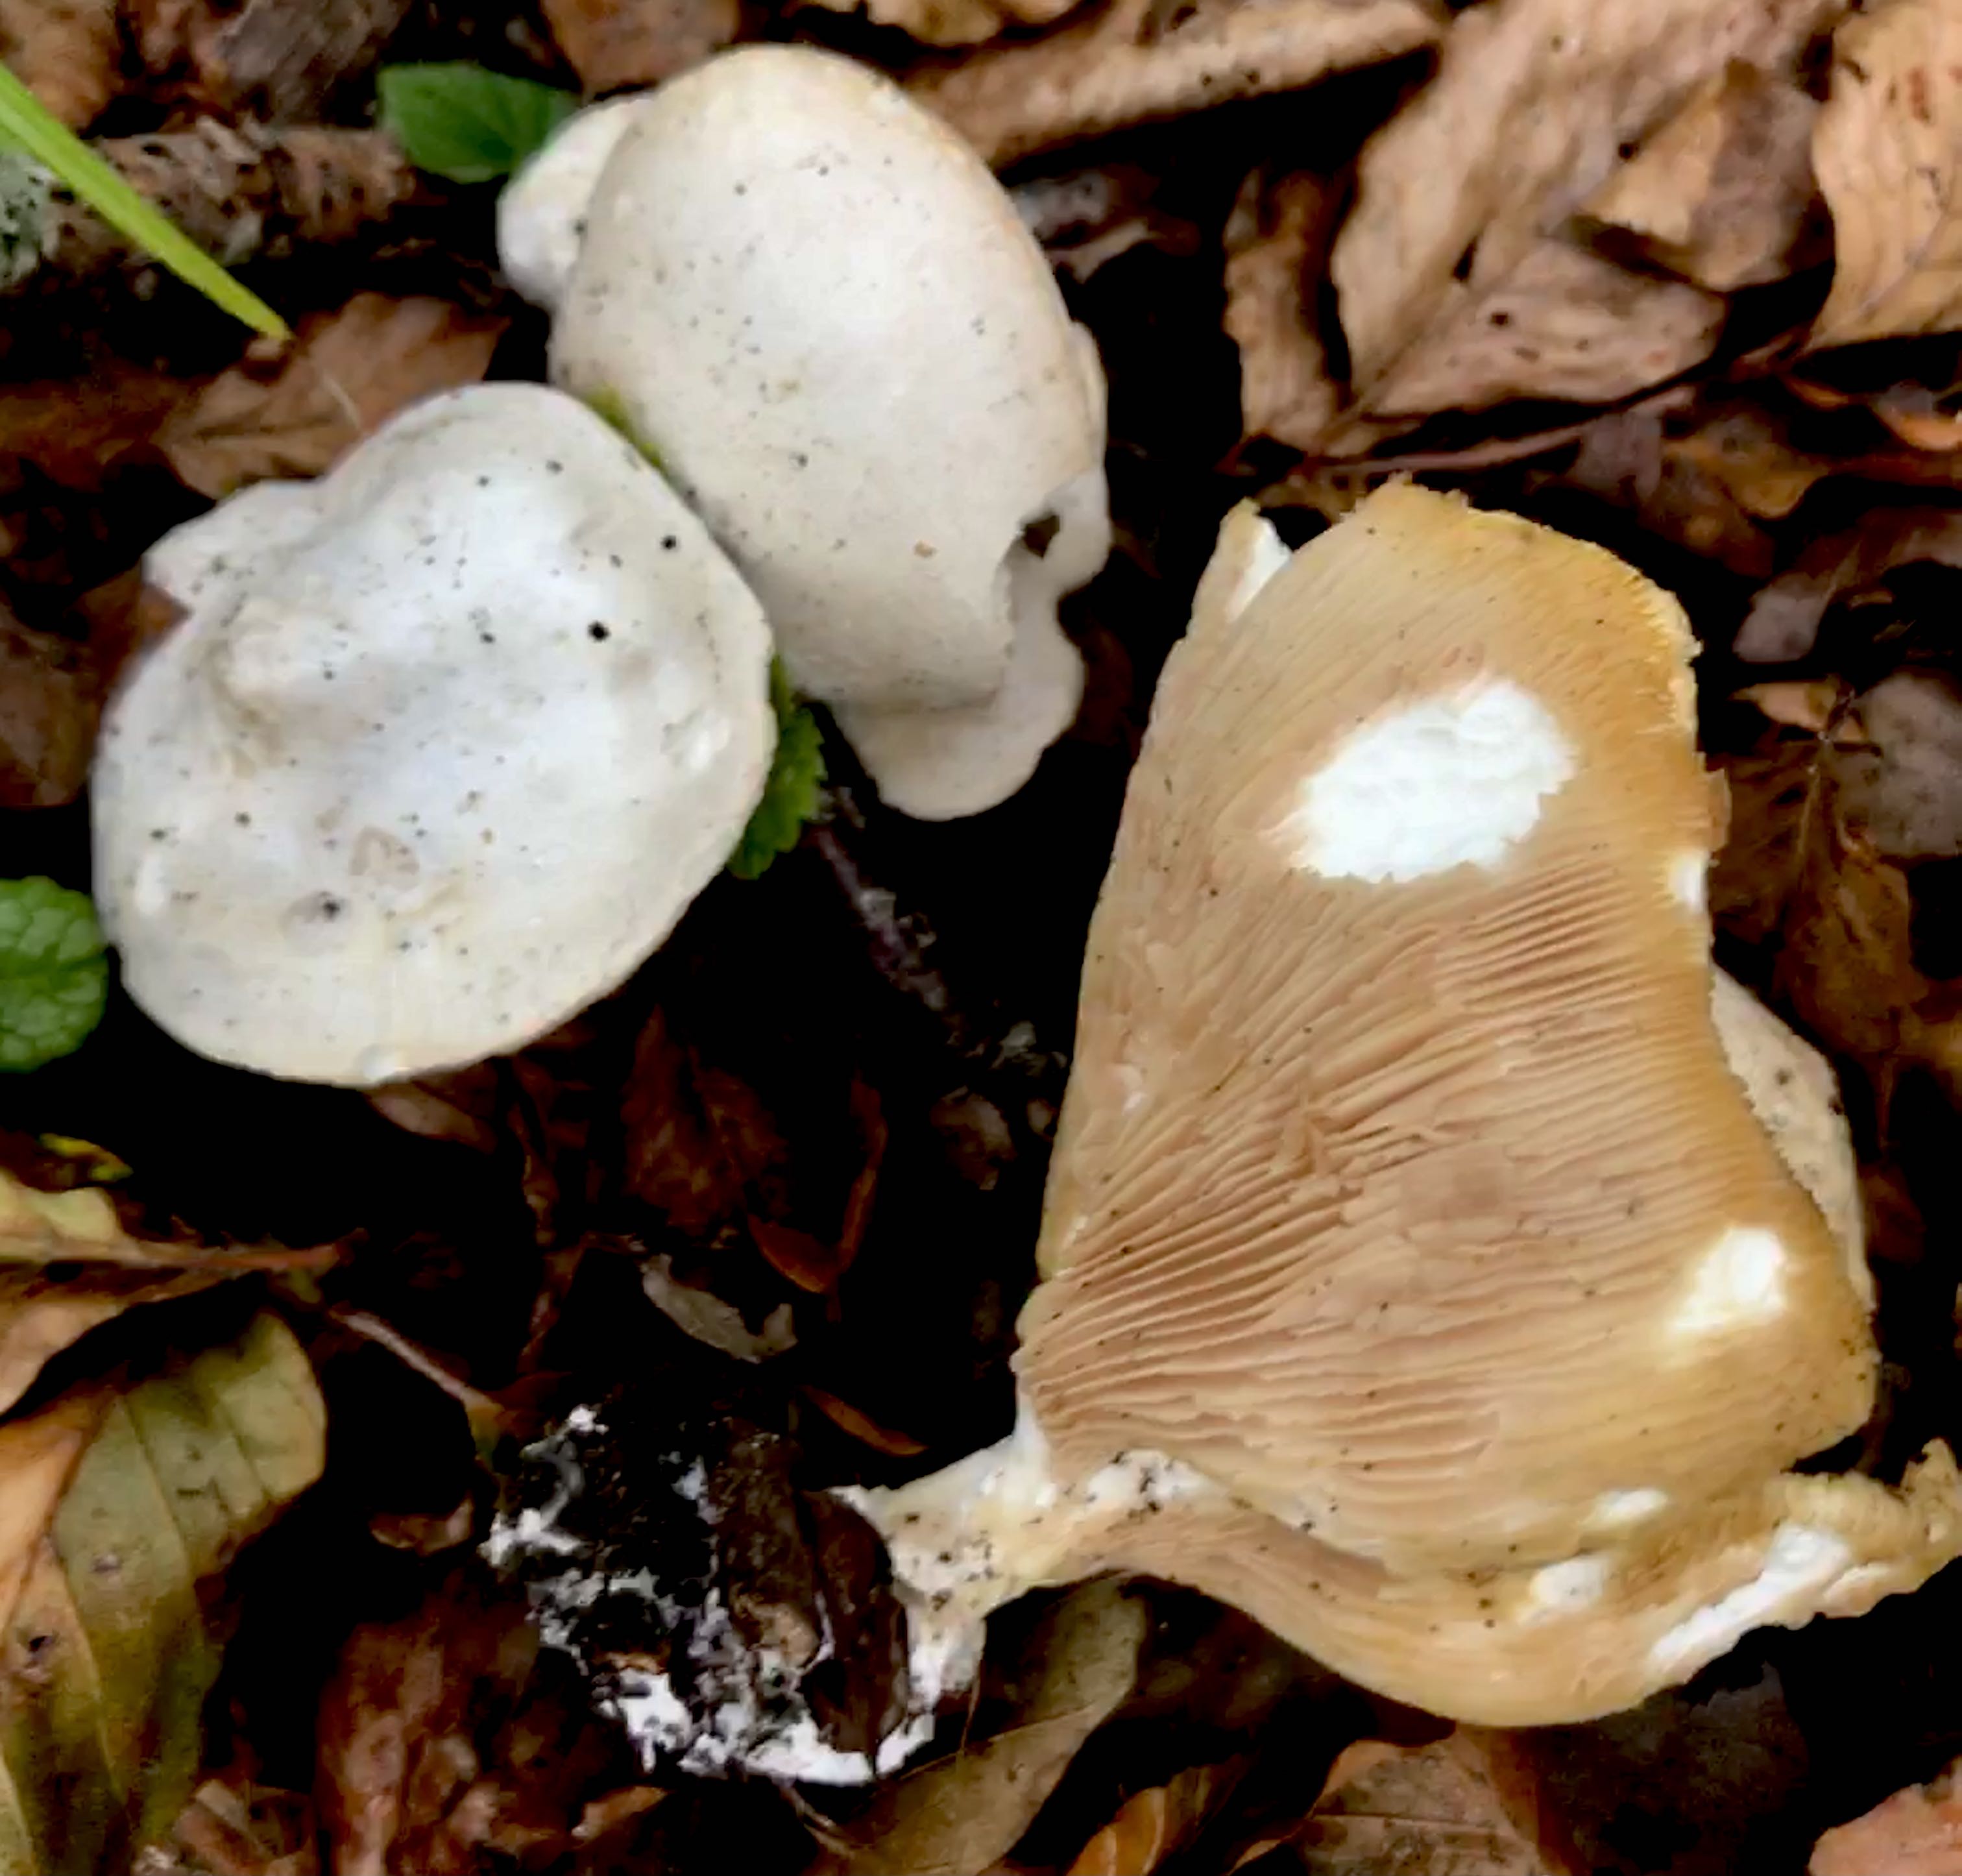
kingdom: Fungi
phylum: Basidiomycota
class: Agaricomycetes
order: Agaricales
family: Entolomataceae
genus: Clitopilus
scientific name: Clitopilus prunulus
